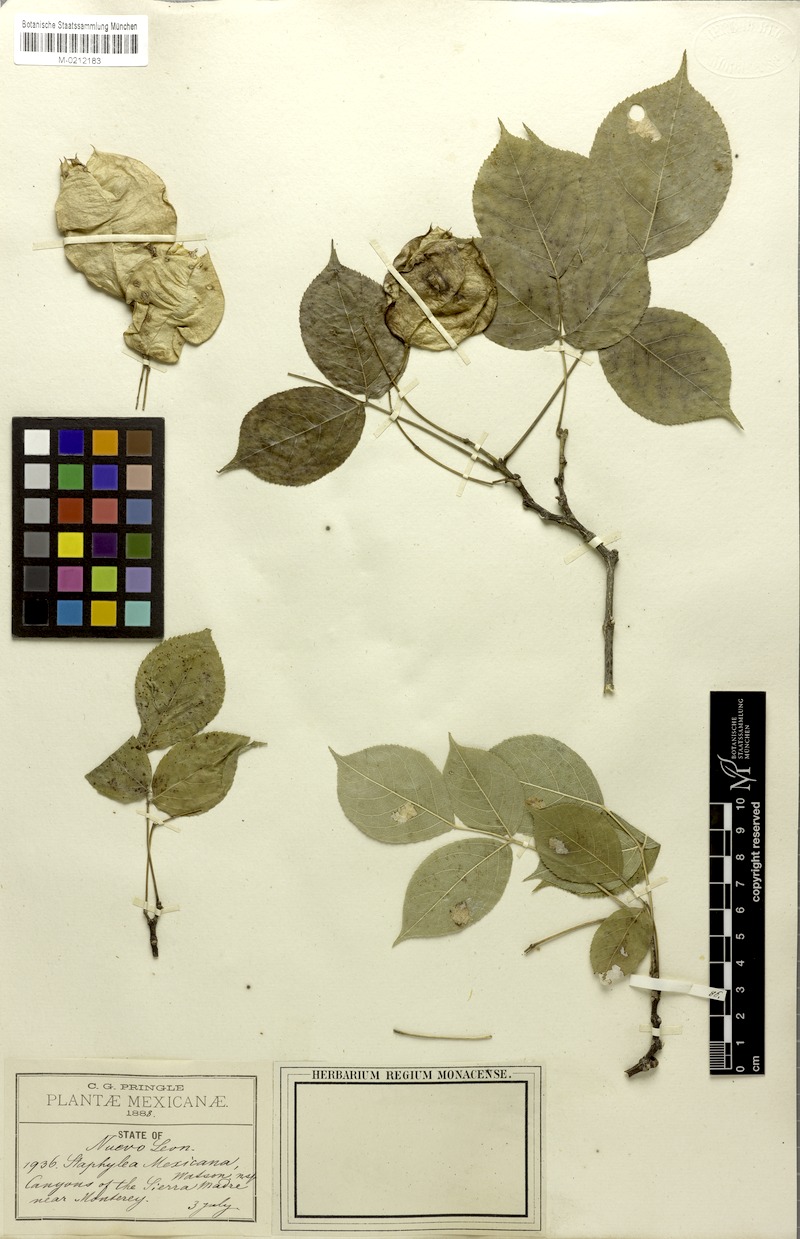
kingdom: Plantae
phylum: Tracheophyta
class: Magnoliopsida
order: Crossosomatales
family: Staphyleaceae
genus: Staphylea
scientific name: Staphylea mexicana
